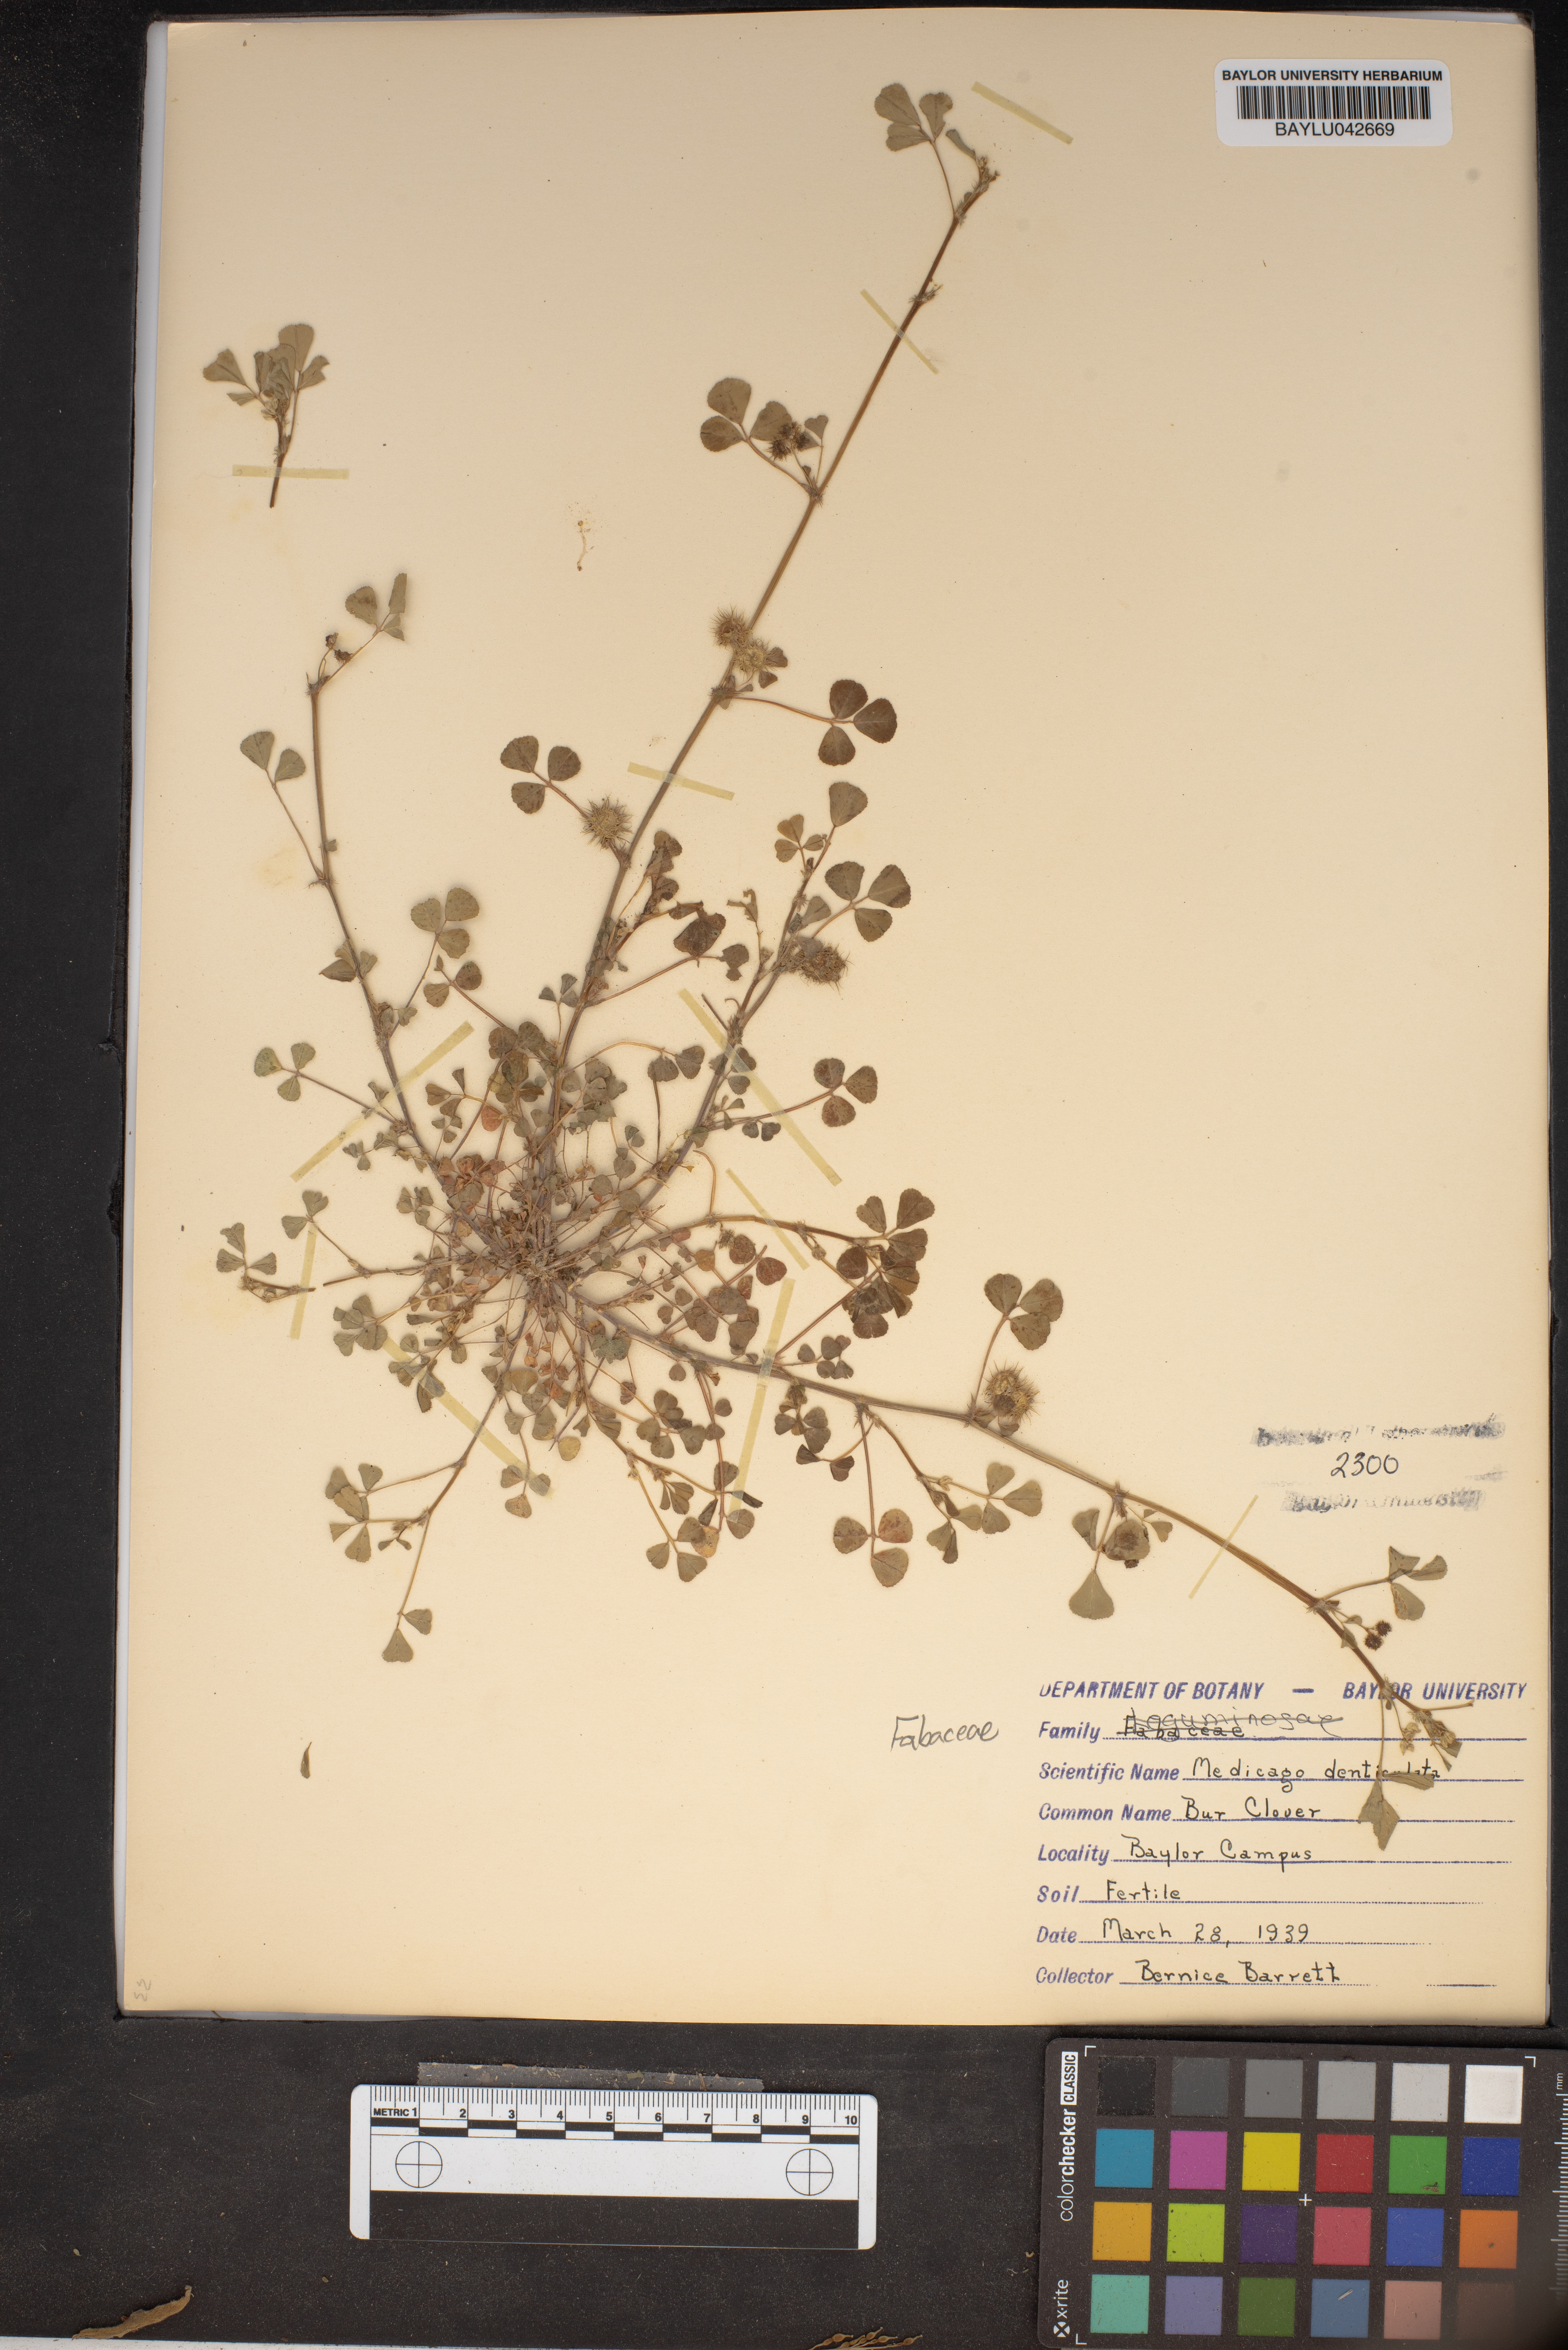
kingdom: Plantae
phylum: Tracheophyta
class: Magnoliopsida
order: Fabales
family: Fabaceae
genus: Medicago
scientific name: Medicago polymorpha
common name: Burclover
